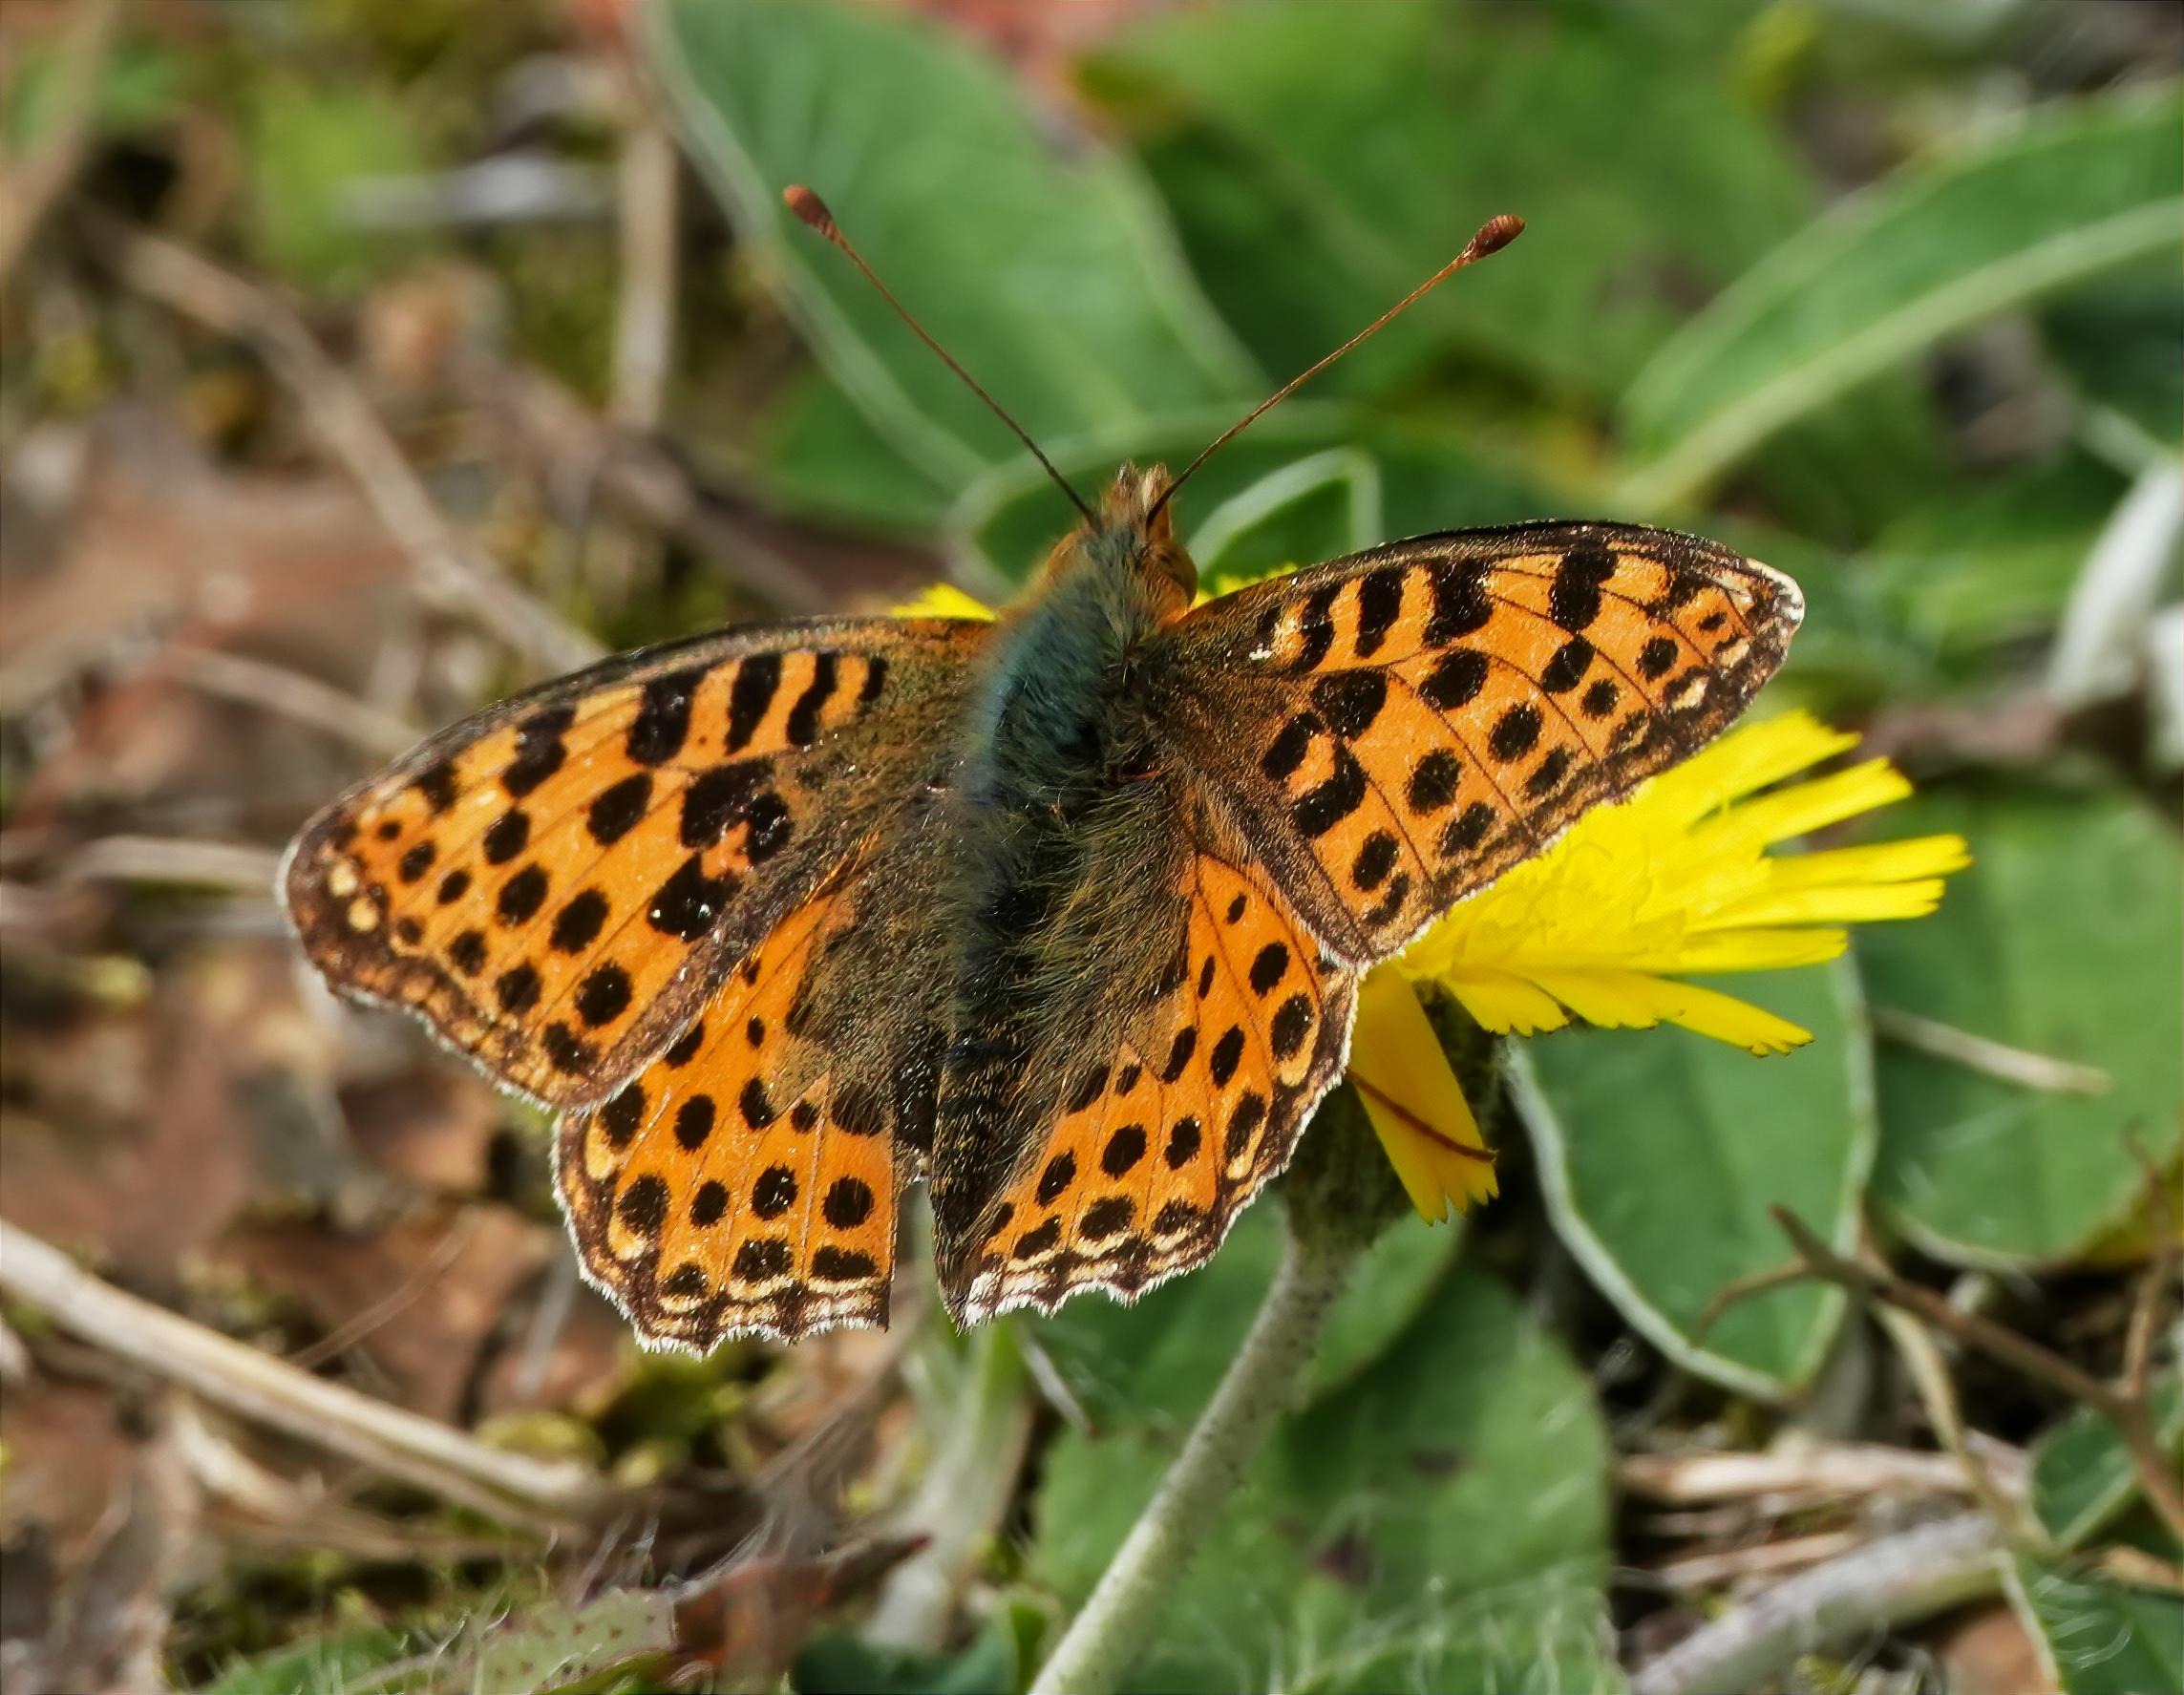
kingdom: Animalia
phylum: Arthropoda
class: Insecta
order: Lepidoptera
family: Nymphalidae
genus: Issoria
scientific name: Issoria lathonia
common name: Storplettet perlemorsommerfugl
